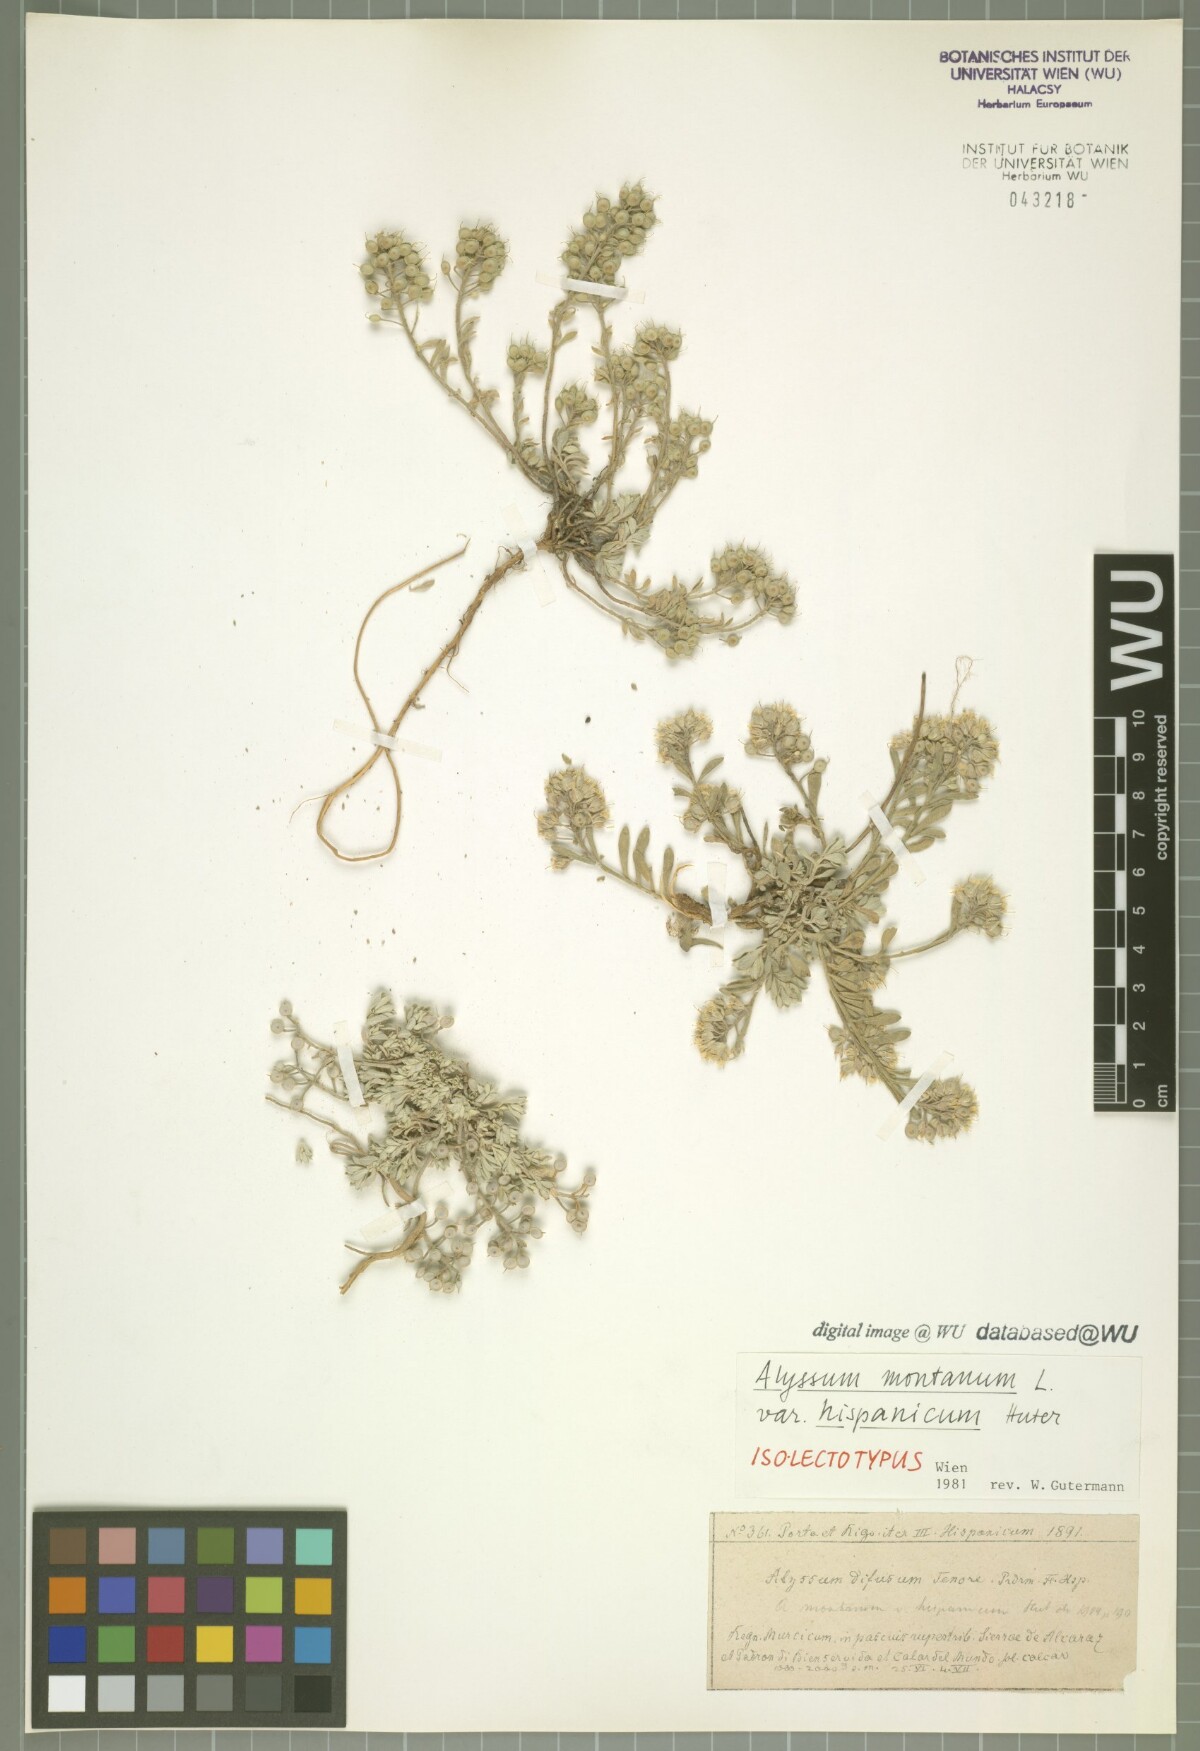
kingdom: Plantae
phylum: Tracheophyta
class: Magnoliopsida
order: Brassicales
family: Brassicaceae
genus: Alyssum
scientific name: Alyssum fastigiatum
